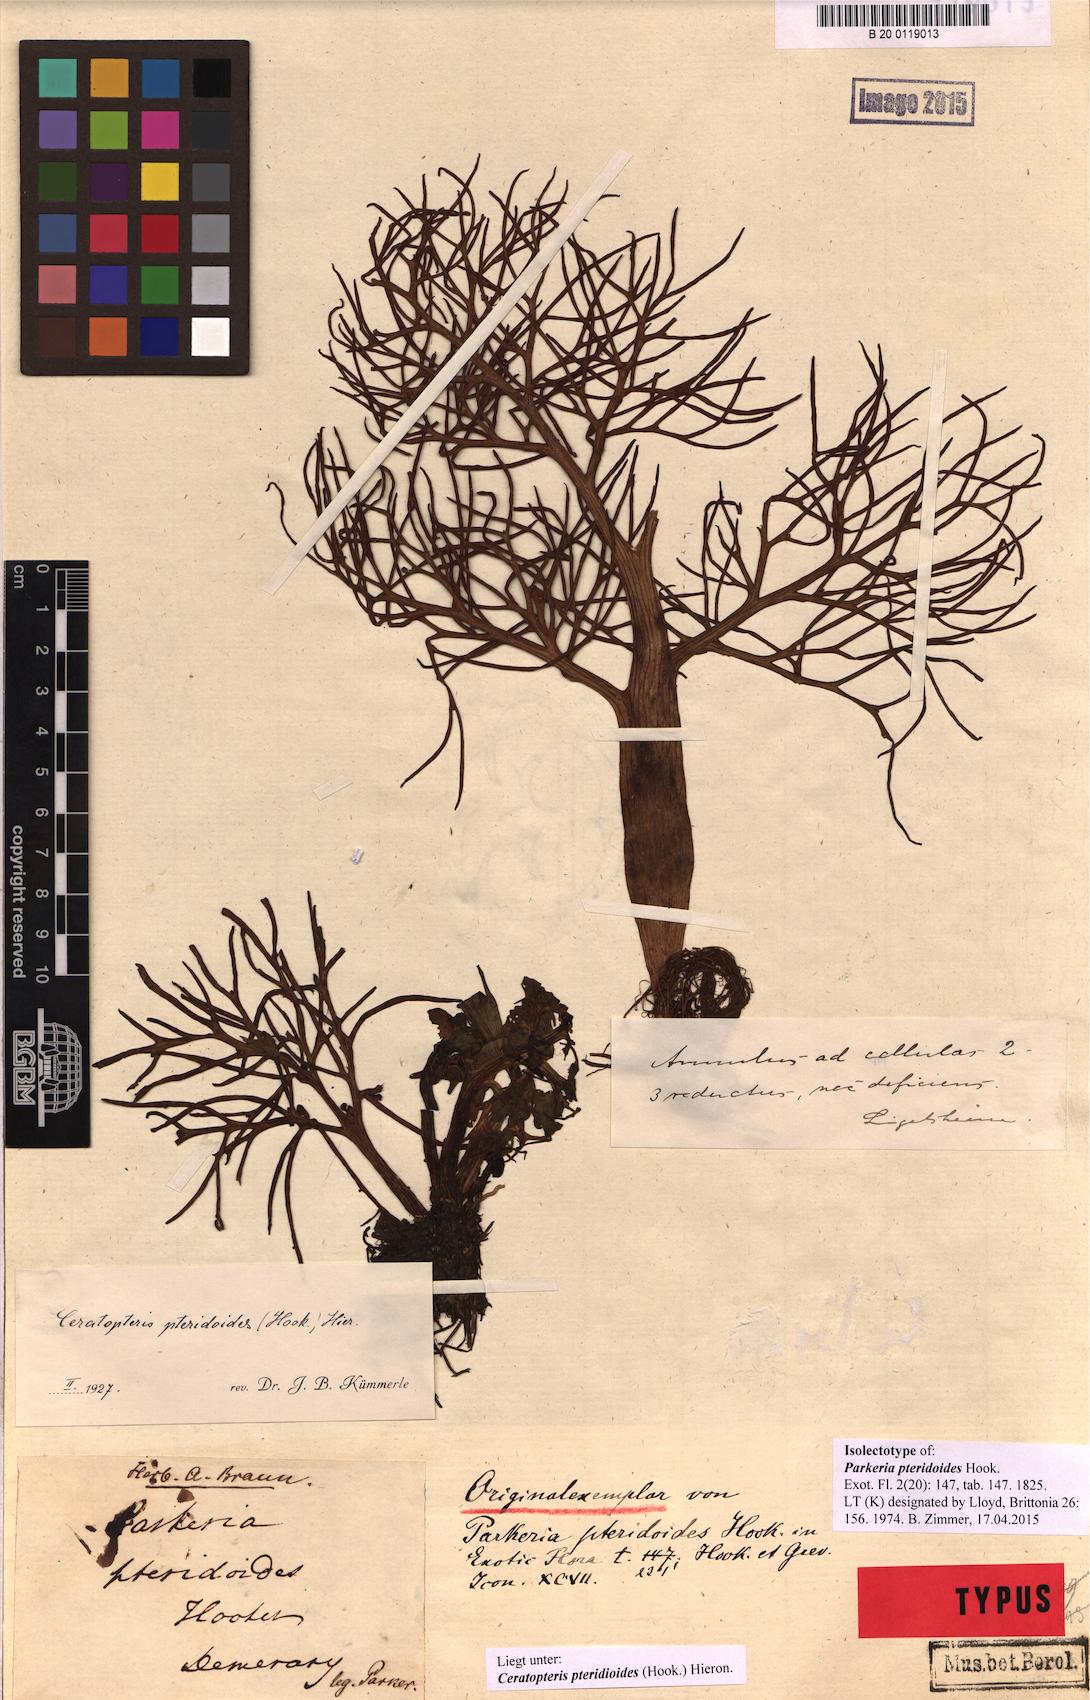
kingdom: Plantae
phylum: Tracheophyta
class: Polypodiopsida
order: Polypodiales
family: Pteridaceae
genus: Ceratopteris
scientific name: Ceratopteris pteridoides
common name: Floating fern
